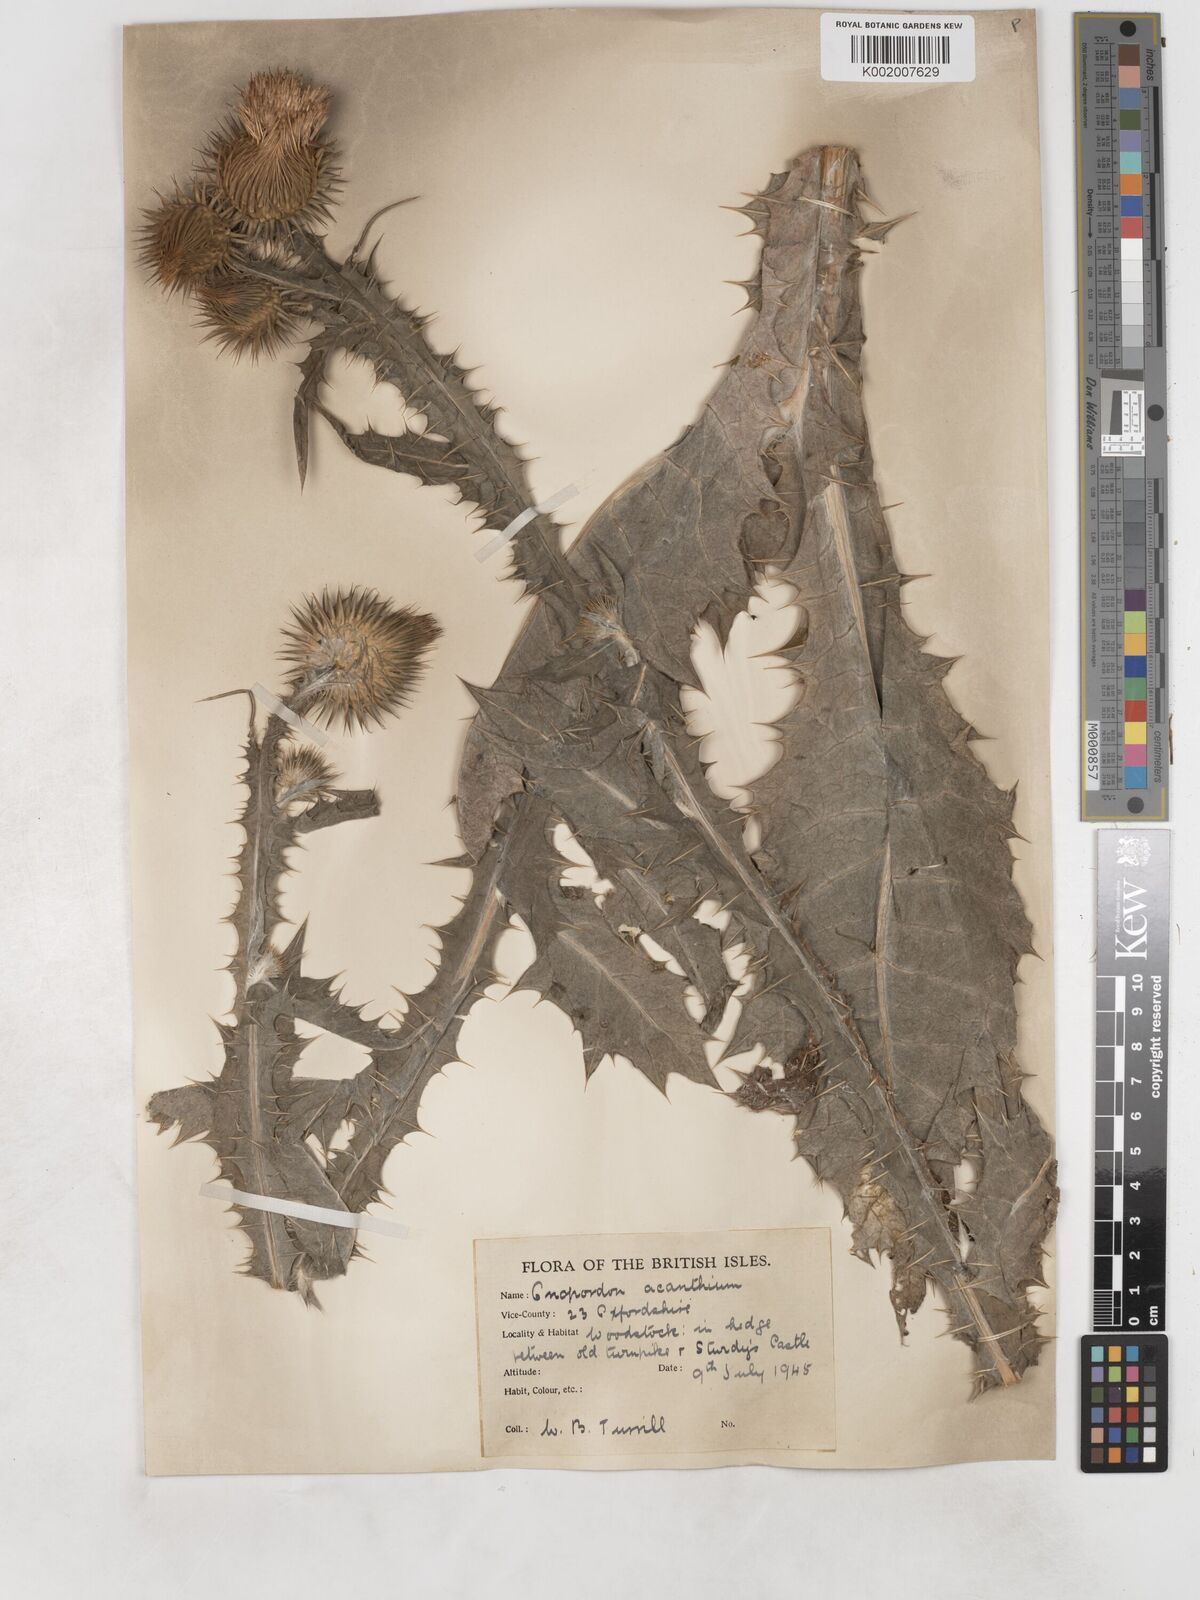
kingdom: Plantae
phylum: Tracheophyta
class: Magnoliopsida
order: Asterales
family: Asteraceae
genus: Onopordum
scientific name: Onopordum acanthium
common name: Scotch thistle
